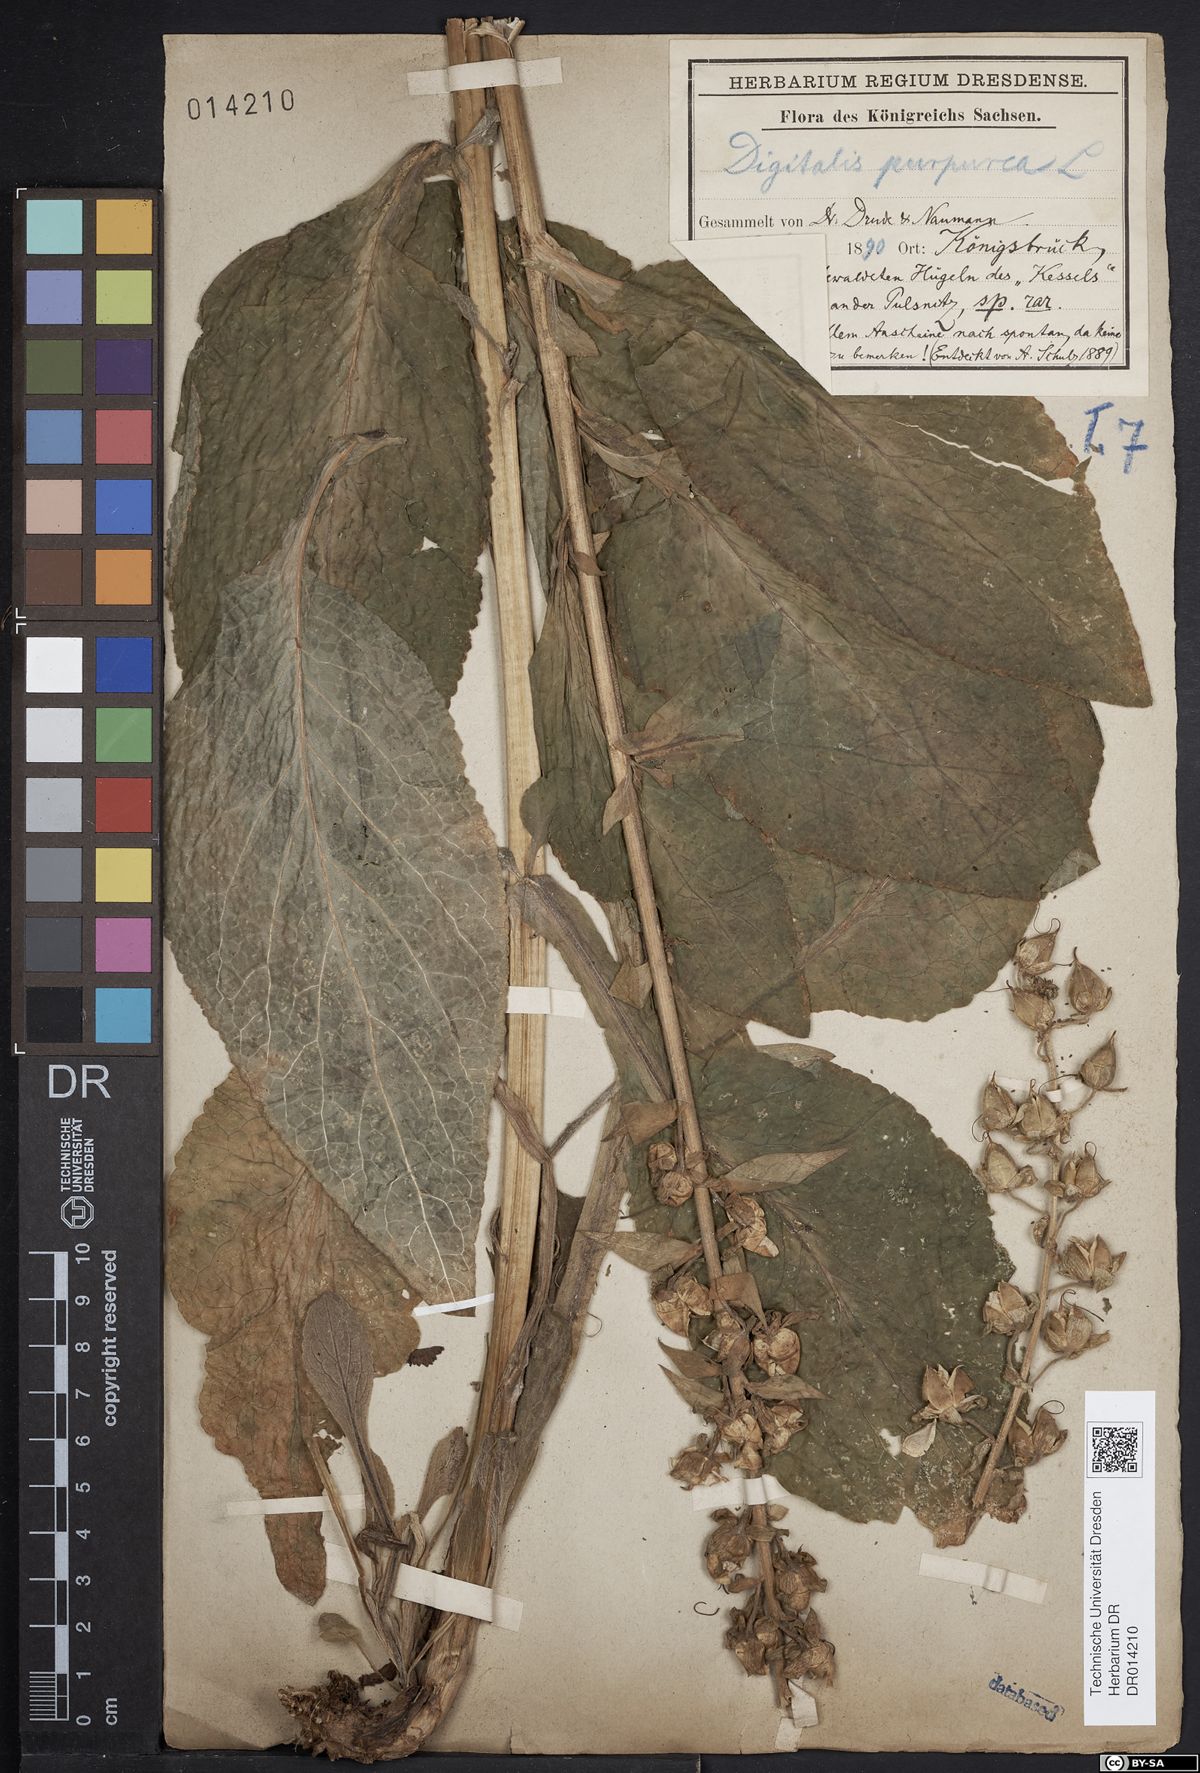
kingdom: Plantae
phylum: Tracheophyta
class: Magnoliopsida
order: Lamiales
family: Plantaginaceae
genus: Digitalis
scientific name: Digitalis purpurea
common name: Foxglove
